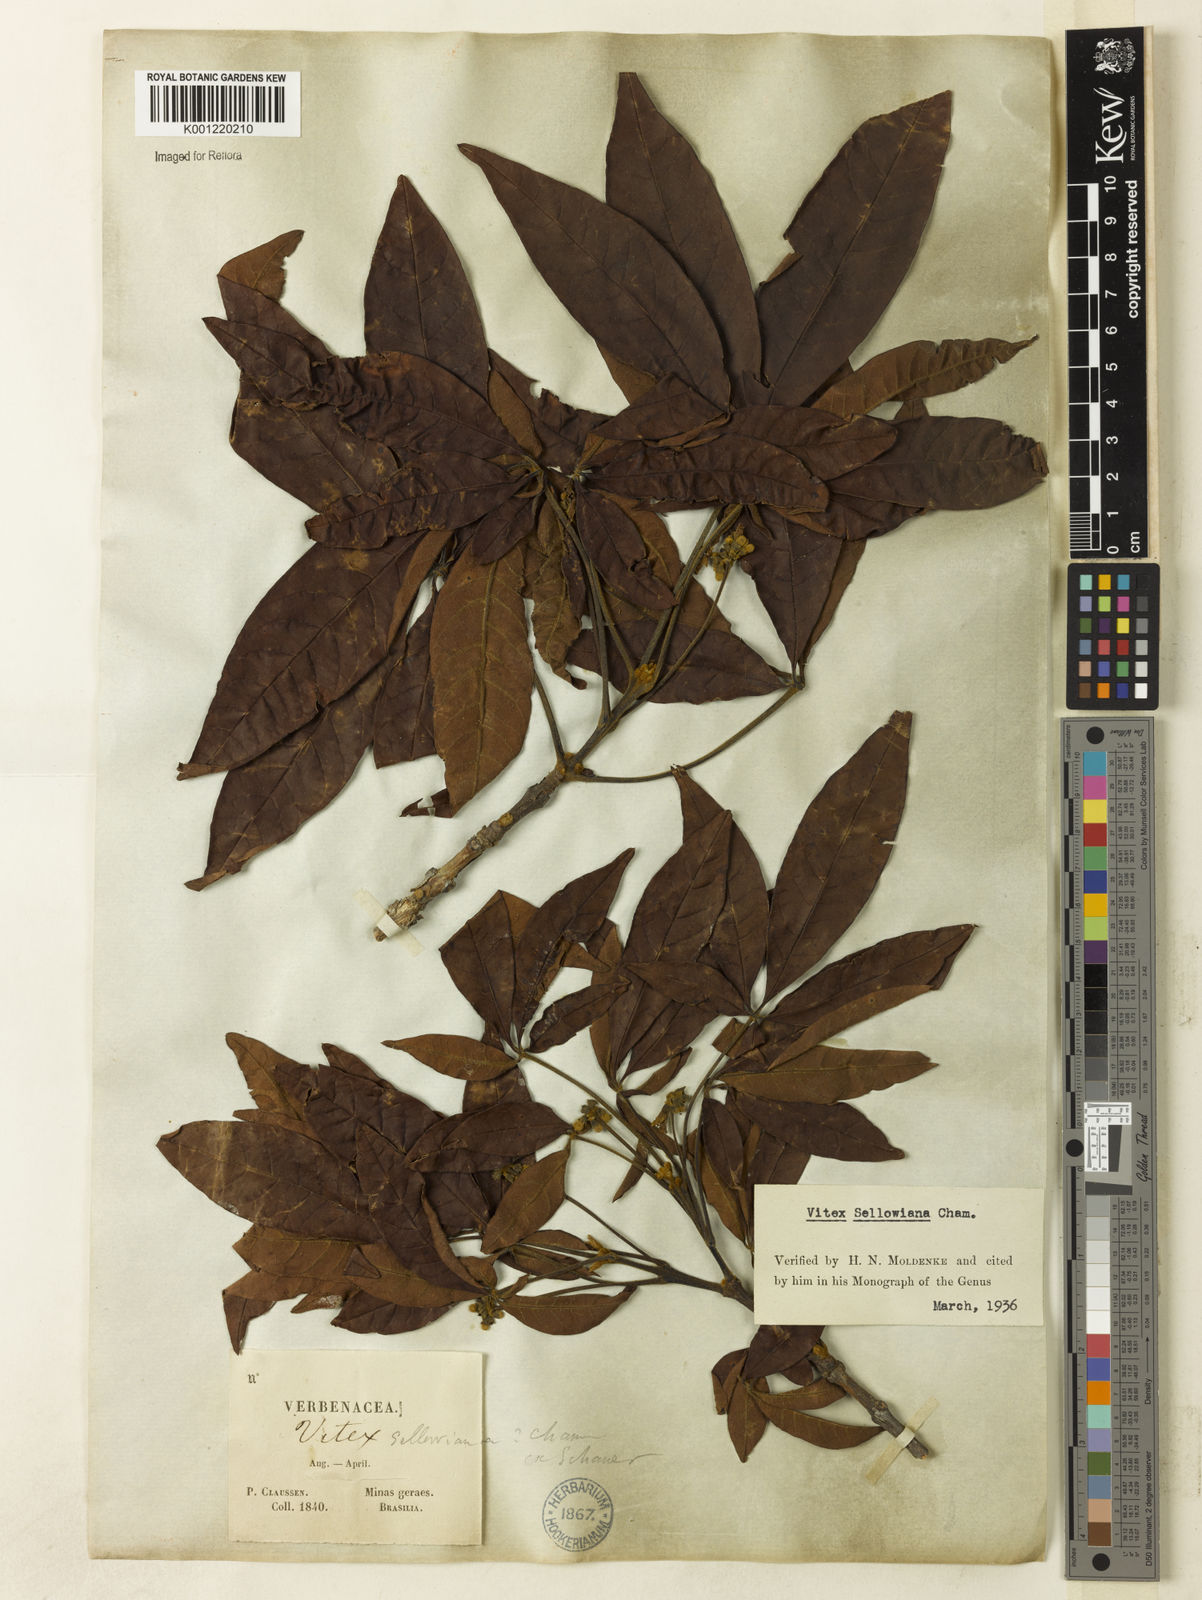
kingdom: Plantae
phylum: Tracheophyta
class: Magnoliopsida
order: Lamiales
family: Lamiaceae
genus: Vitex
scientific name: Vitex sellowiana
